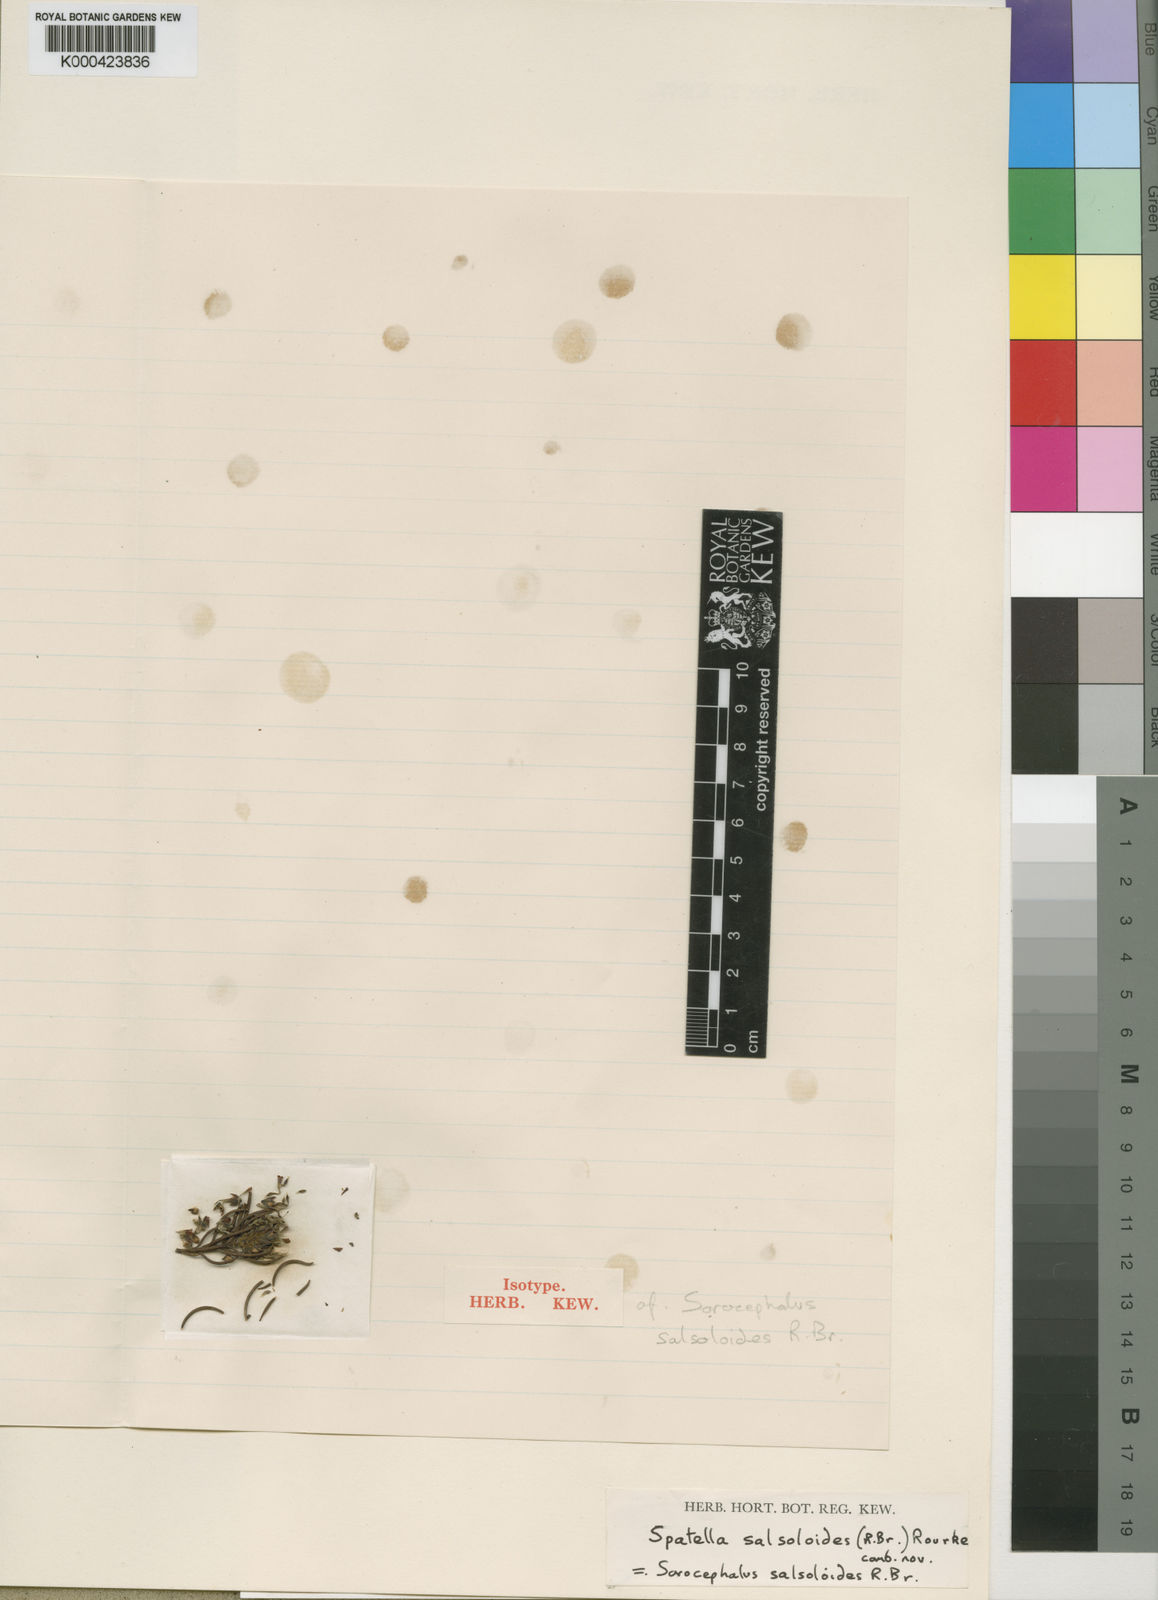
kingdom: Plantae
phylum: Tracheophyta
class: Magnoliopsida
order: Proteales
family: Proteaceae
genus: Spatalla
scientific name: Spatalla salsoloides
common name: Kink-style spoon
